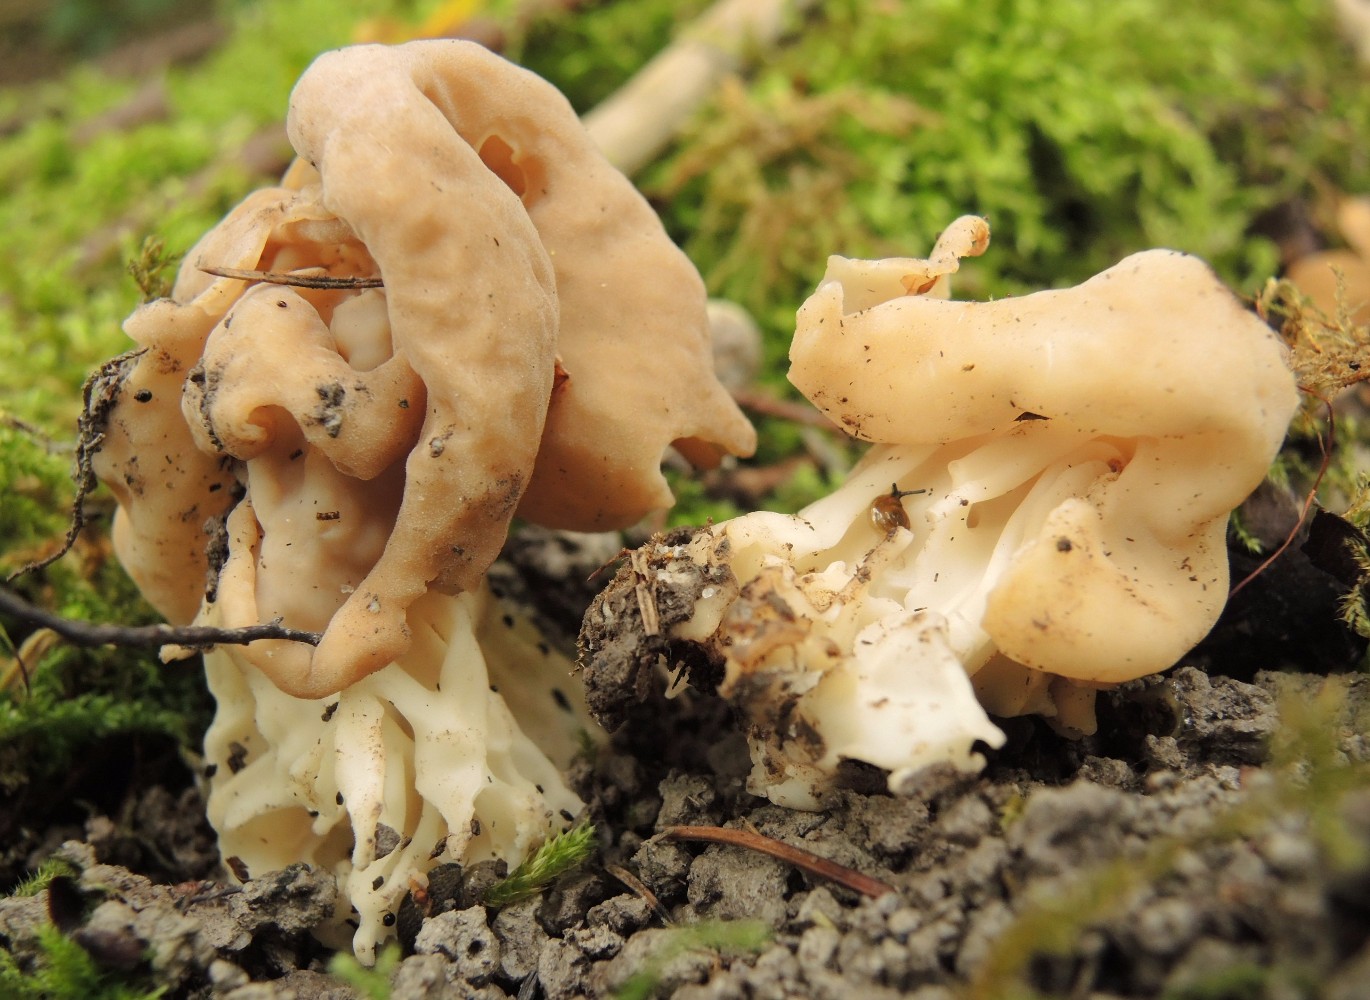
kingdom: Fungi
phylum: Ascomycota
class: Pezizomycetes
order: Pezizales
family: Helvellaceae
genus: Helvella
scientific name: Helvella crispa
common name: kruset foldhat
